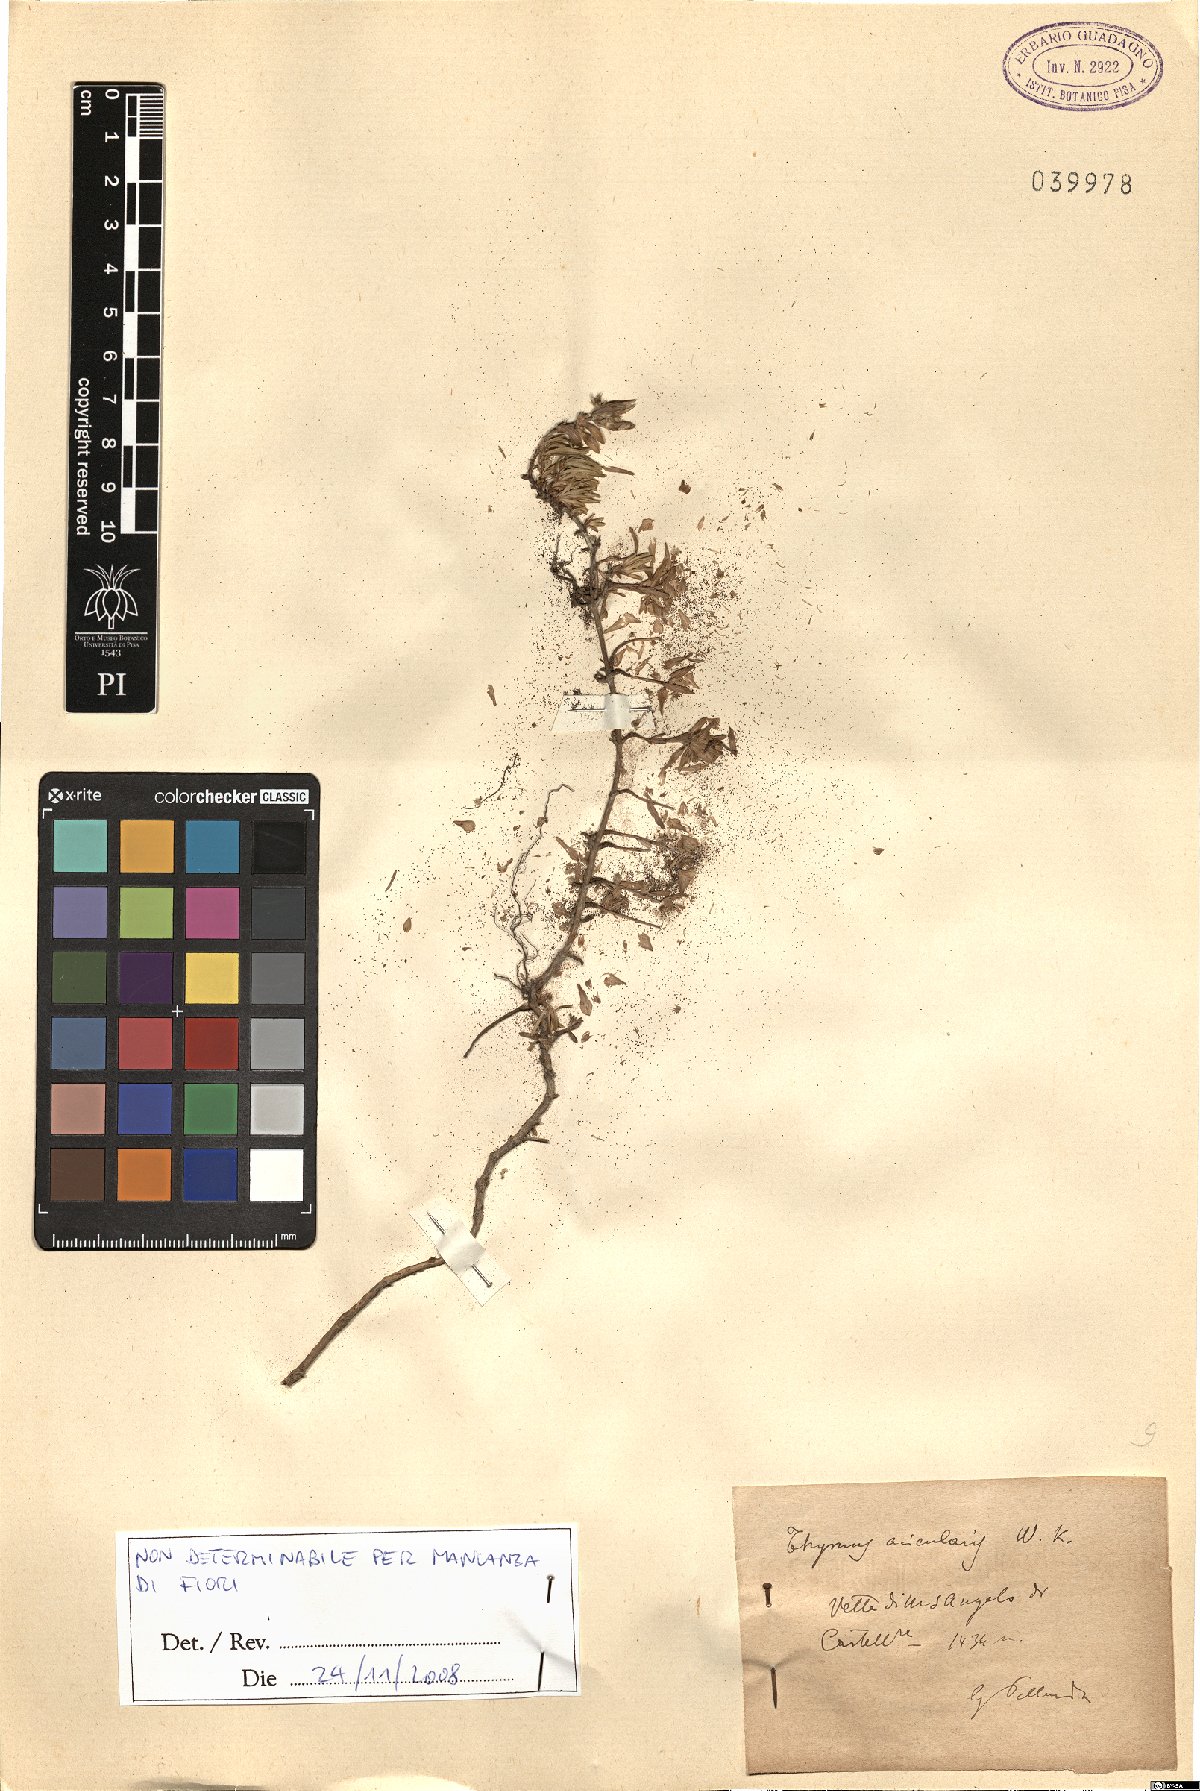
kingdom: Plantae
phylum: Tracheophyta
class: Magnoliopsida
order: Lamiales
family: Lamiaceae
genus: Thymus
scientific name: Thymus striatus
